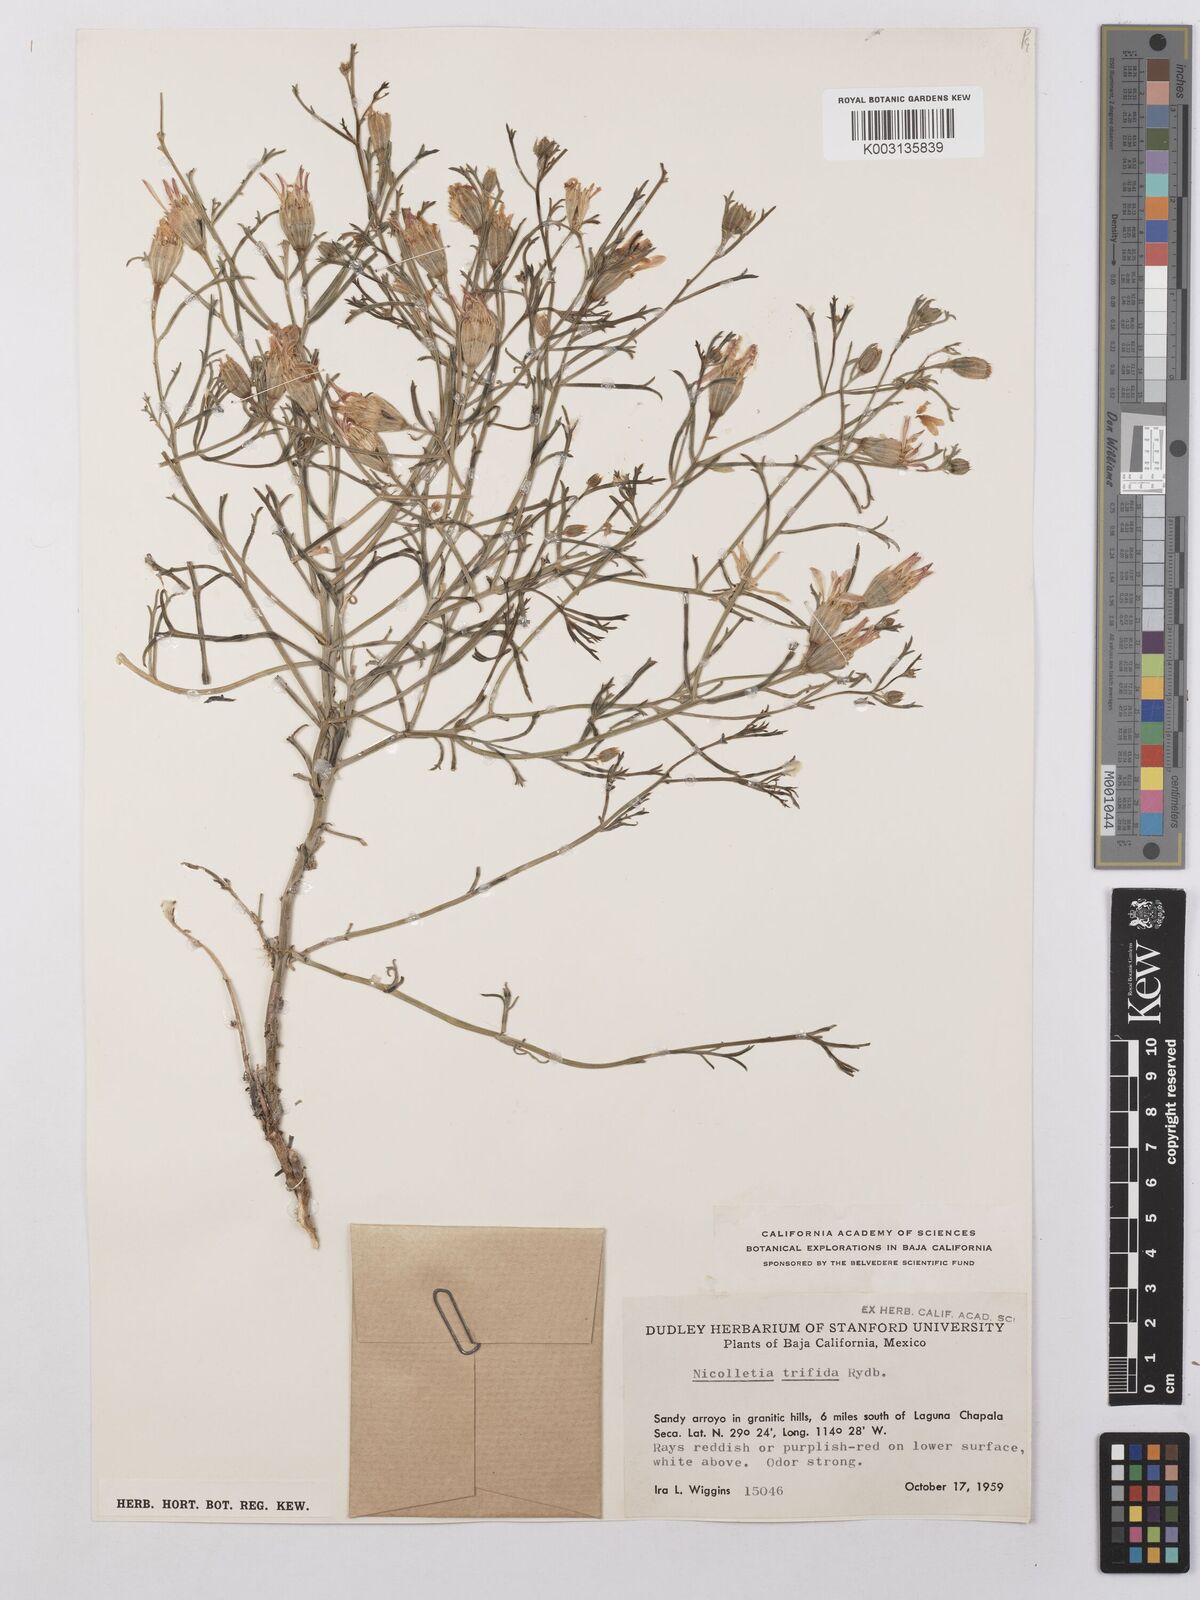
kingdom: Plantae
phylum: Tracheophyta
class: Magnoliopsida
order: Asterales
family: Asteraceae
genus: Nicolletia
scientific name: Nicolletia trifida
